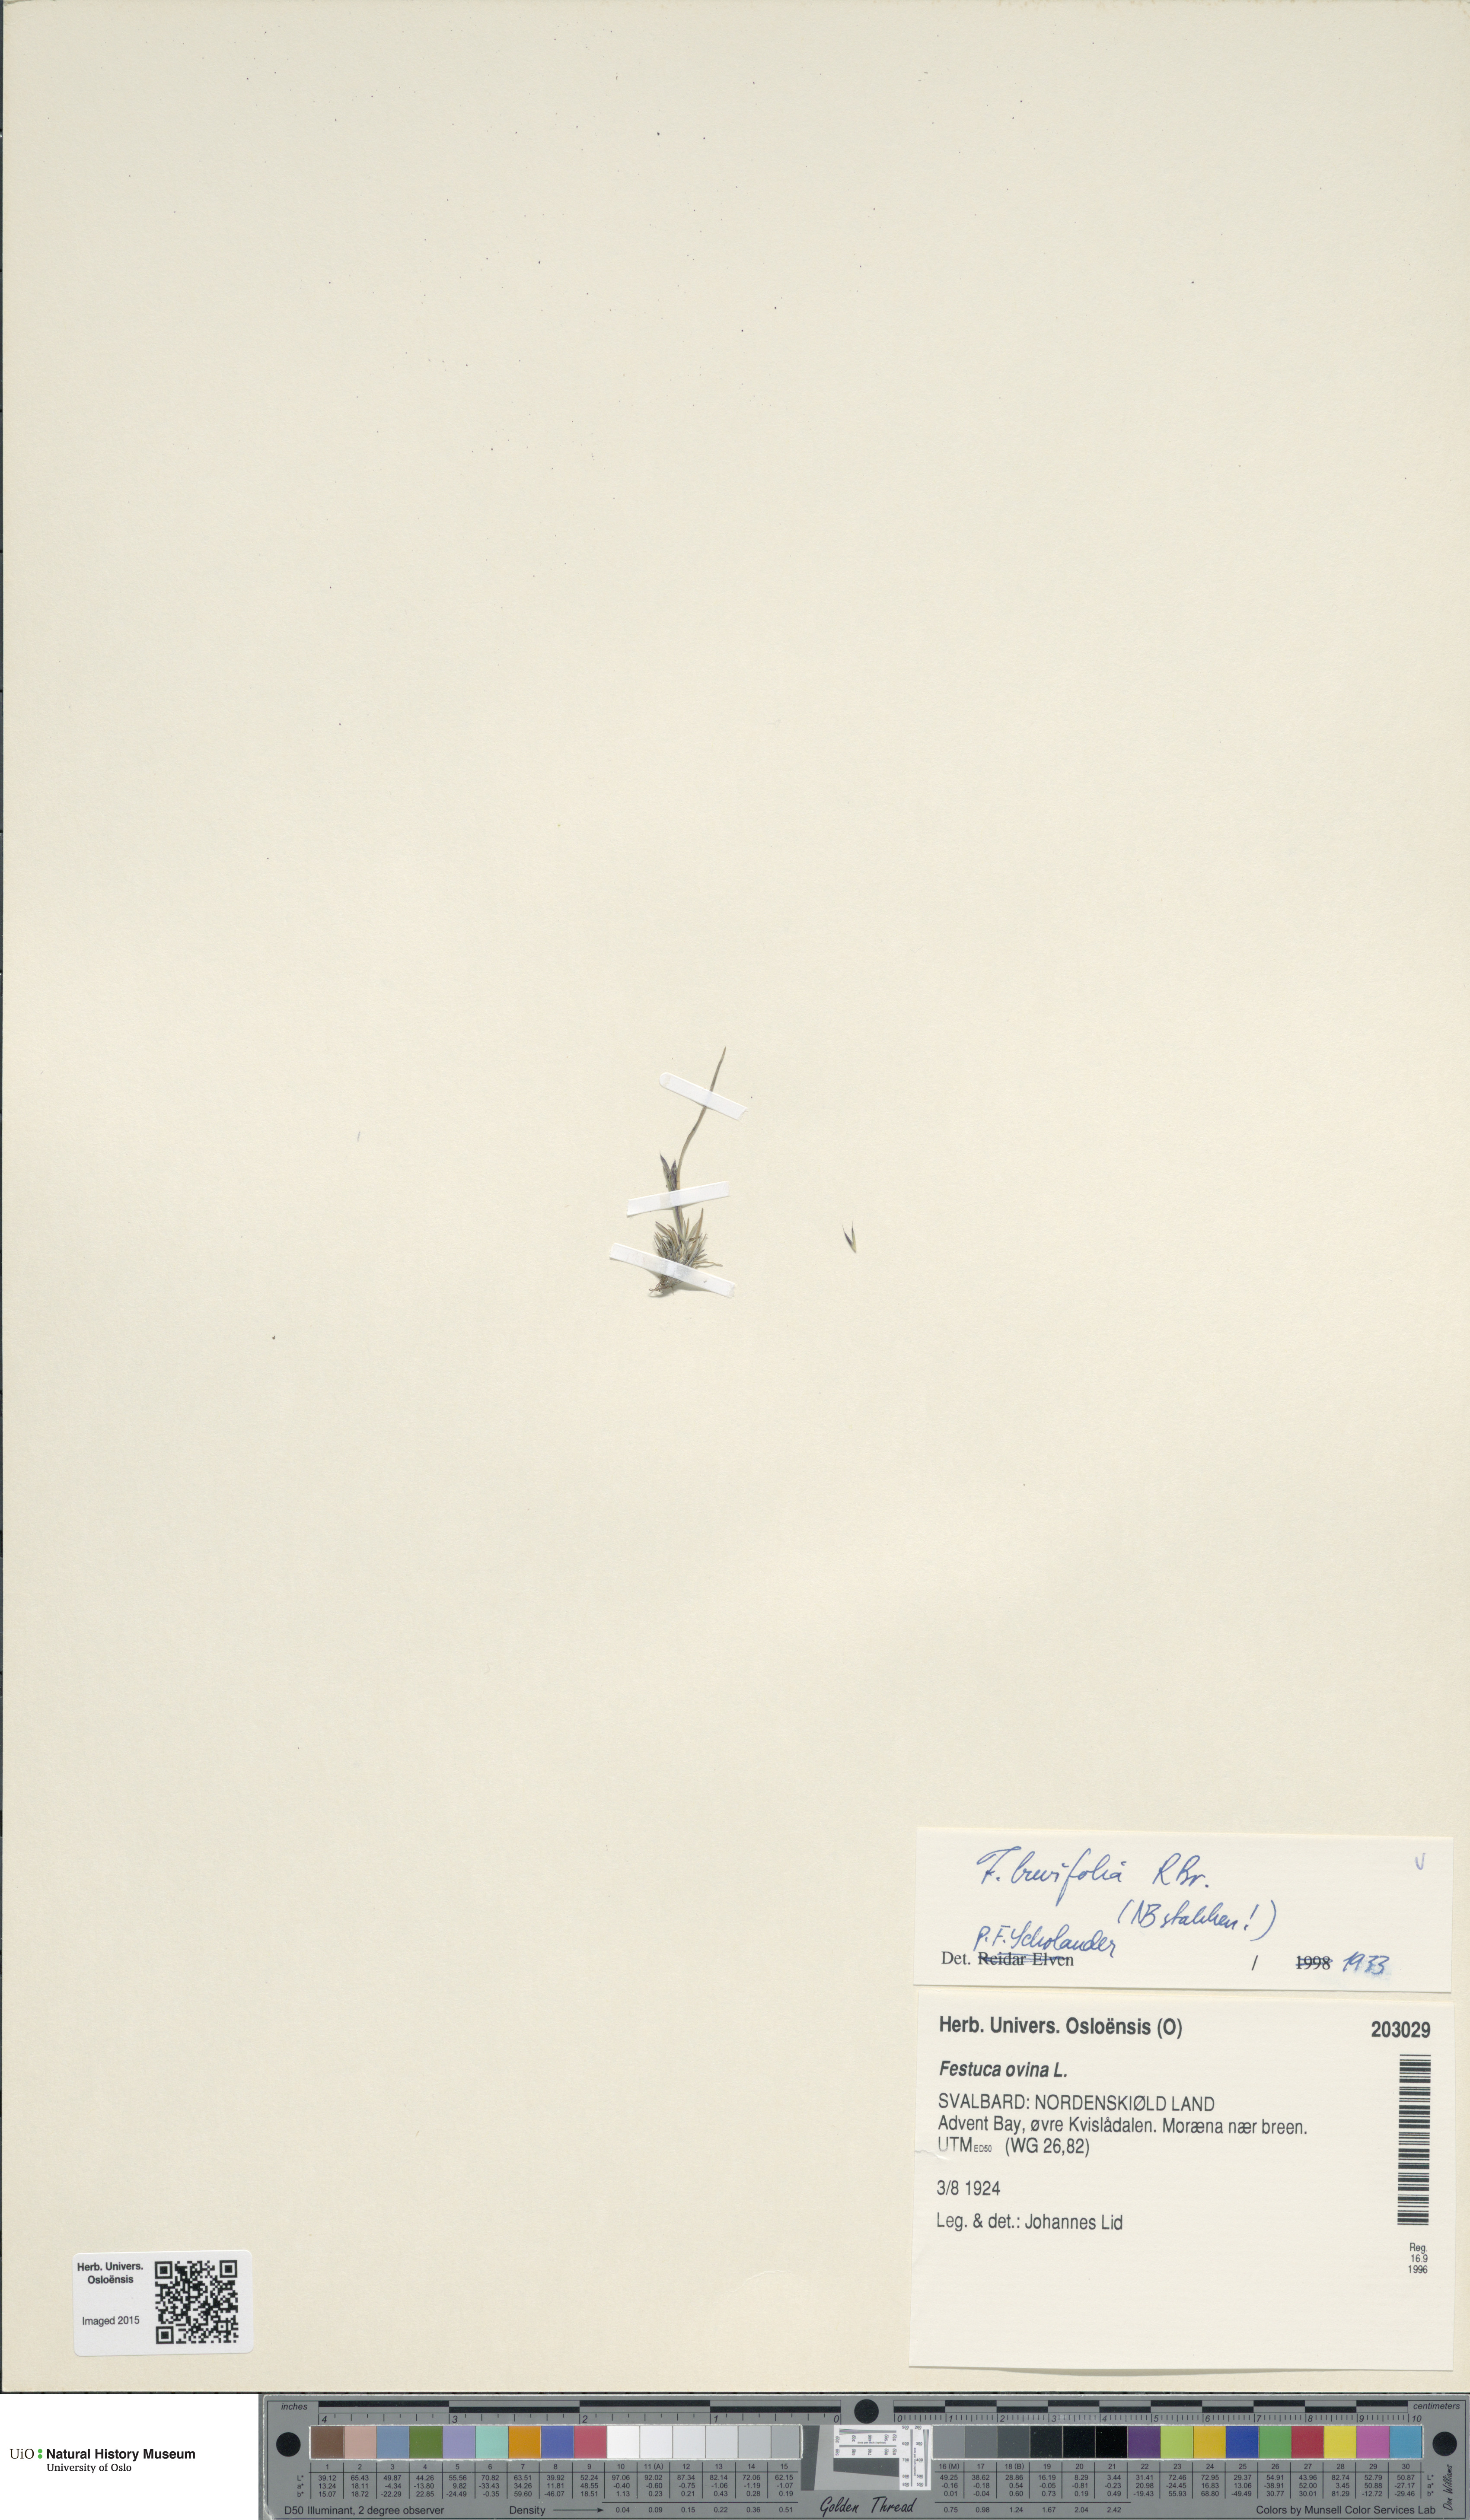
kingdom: Plantae
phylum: Tracheophyta
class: Liliopsida
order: Poales
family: Poaceae
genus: Festuca
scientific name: Festuca brachyphylla
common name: Alpine fescue
